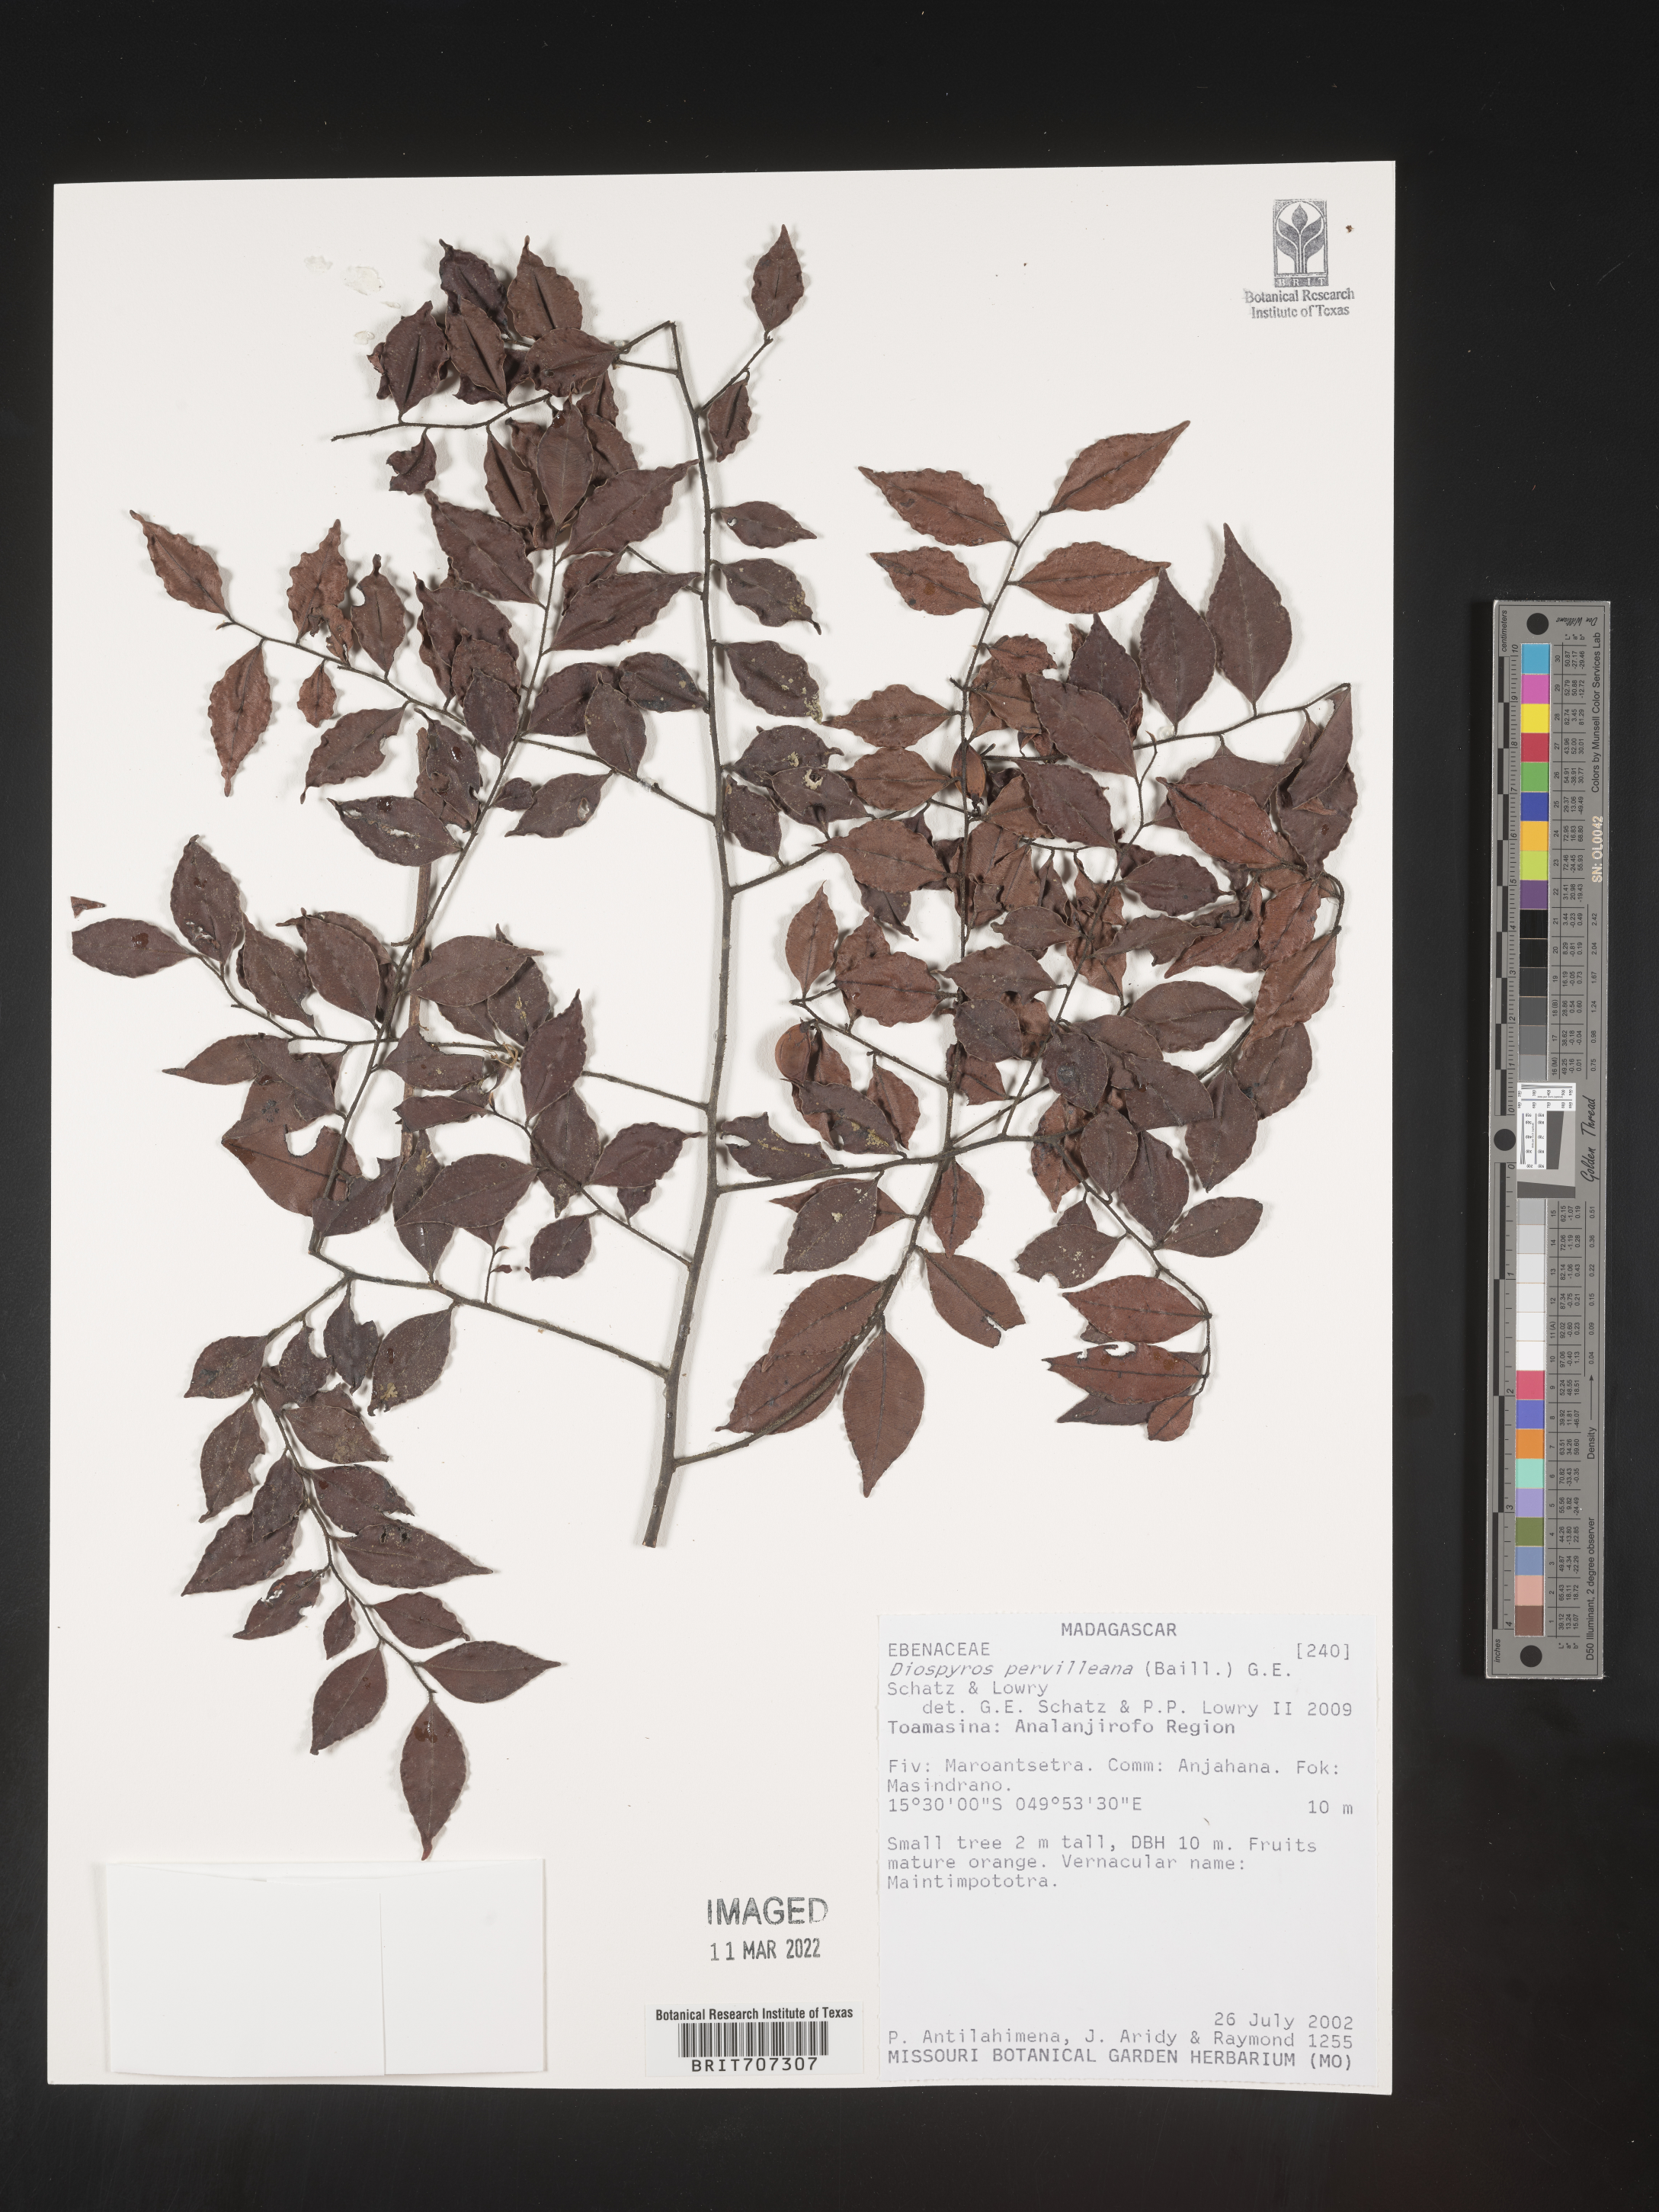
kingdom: Plantae
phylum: Tracheophyta
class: Magnoliopsida
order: Ericales
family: Ebenaceae
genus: Diospyros
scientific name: Diospyros
